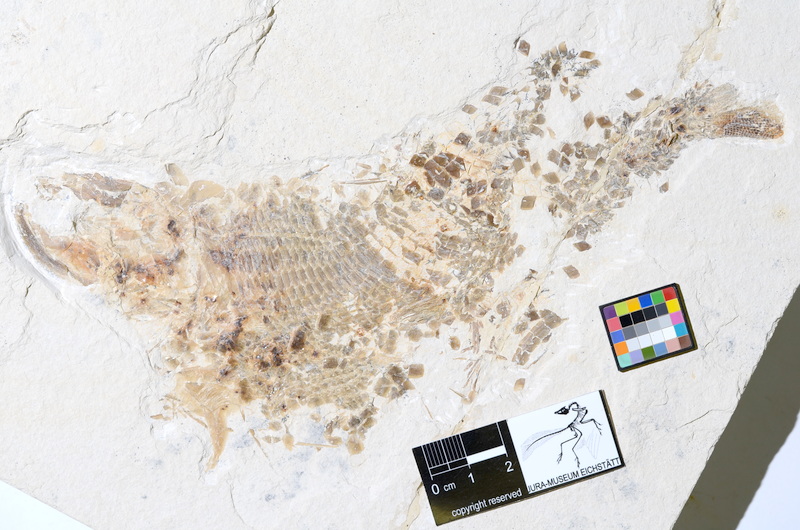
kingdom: Animalia
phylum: Chordata
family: Ankylophoridae
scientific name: Ankylophoridae
